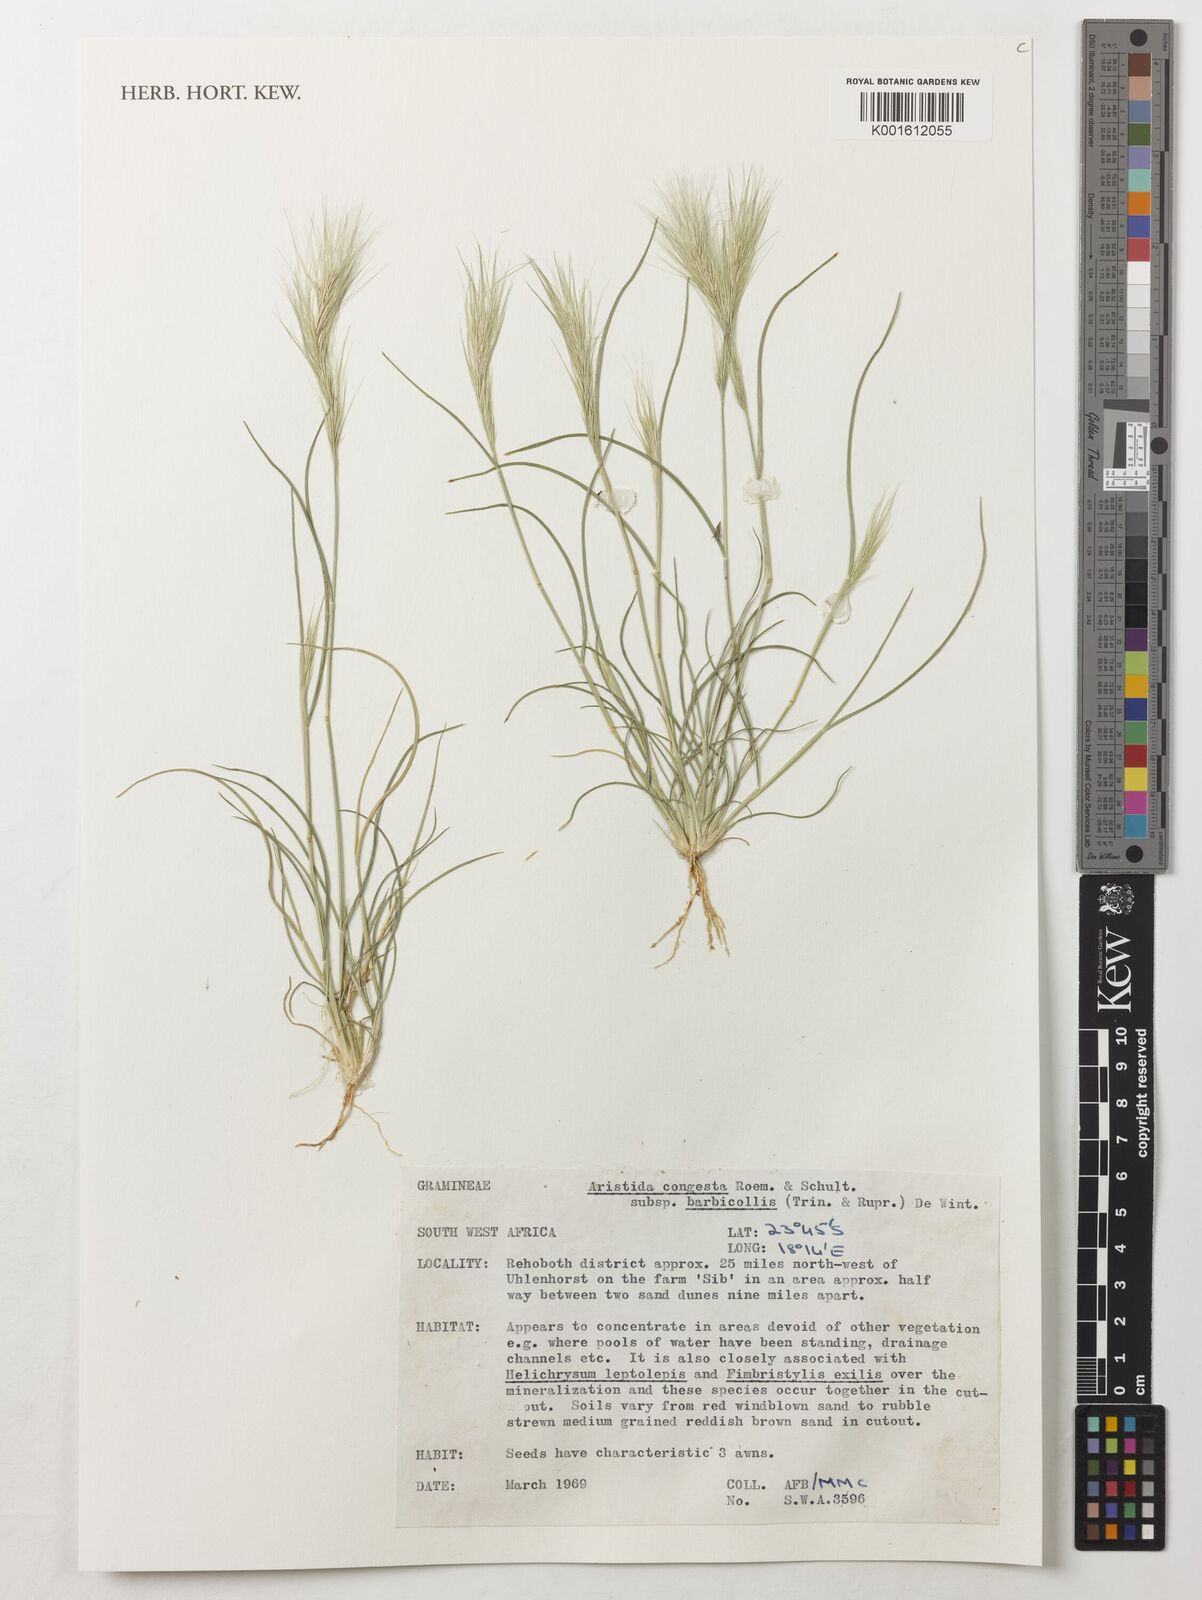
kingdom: Plantae
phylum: Tracheophyta
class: Liliopsida
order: Poales
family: Poaceae
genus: Aristida
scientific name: Aristida congesta
